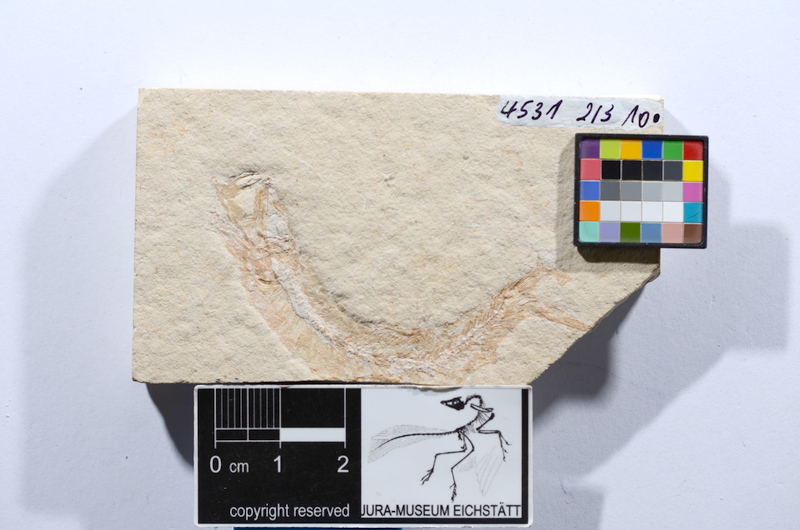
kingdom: Animalia
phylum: Chordata
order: Salmoniformes
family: Orthogonikleithridae
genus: Leptolepides
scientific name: Leptolepides sprattiformis
